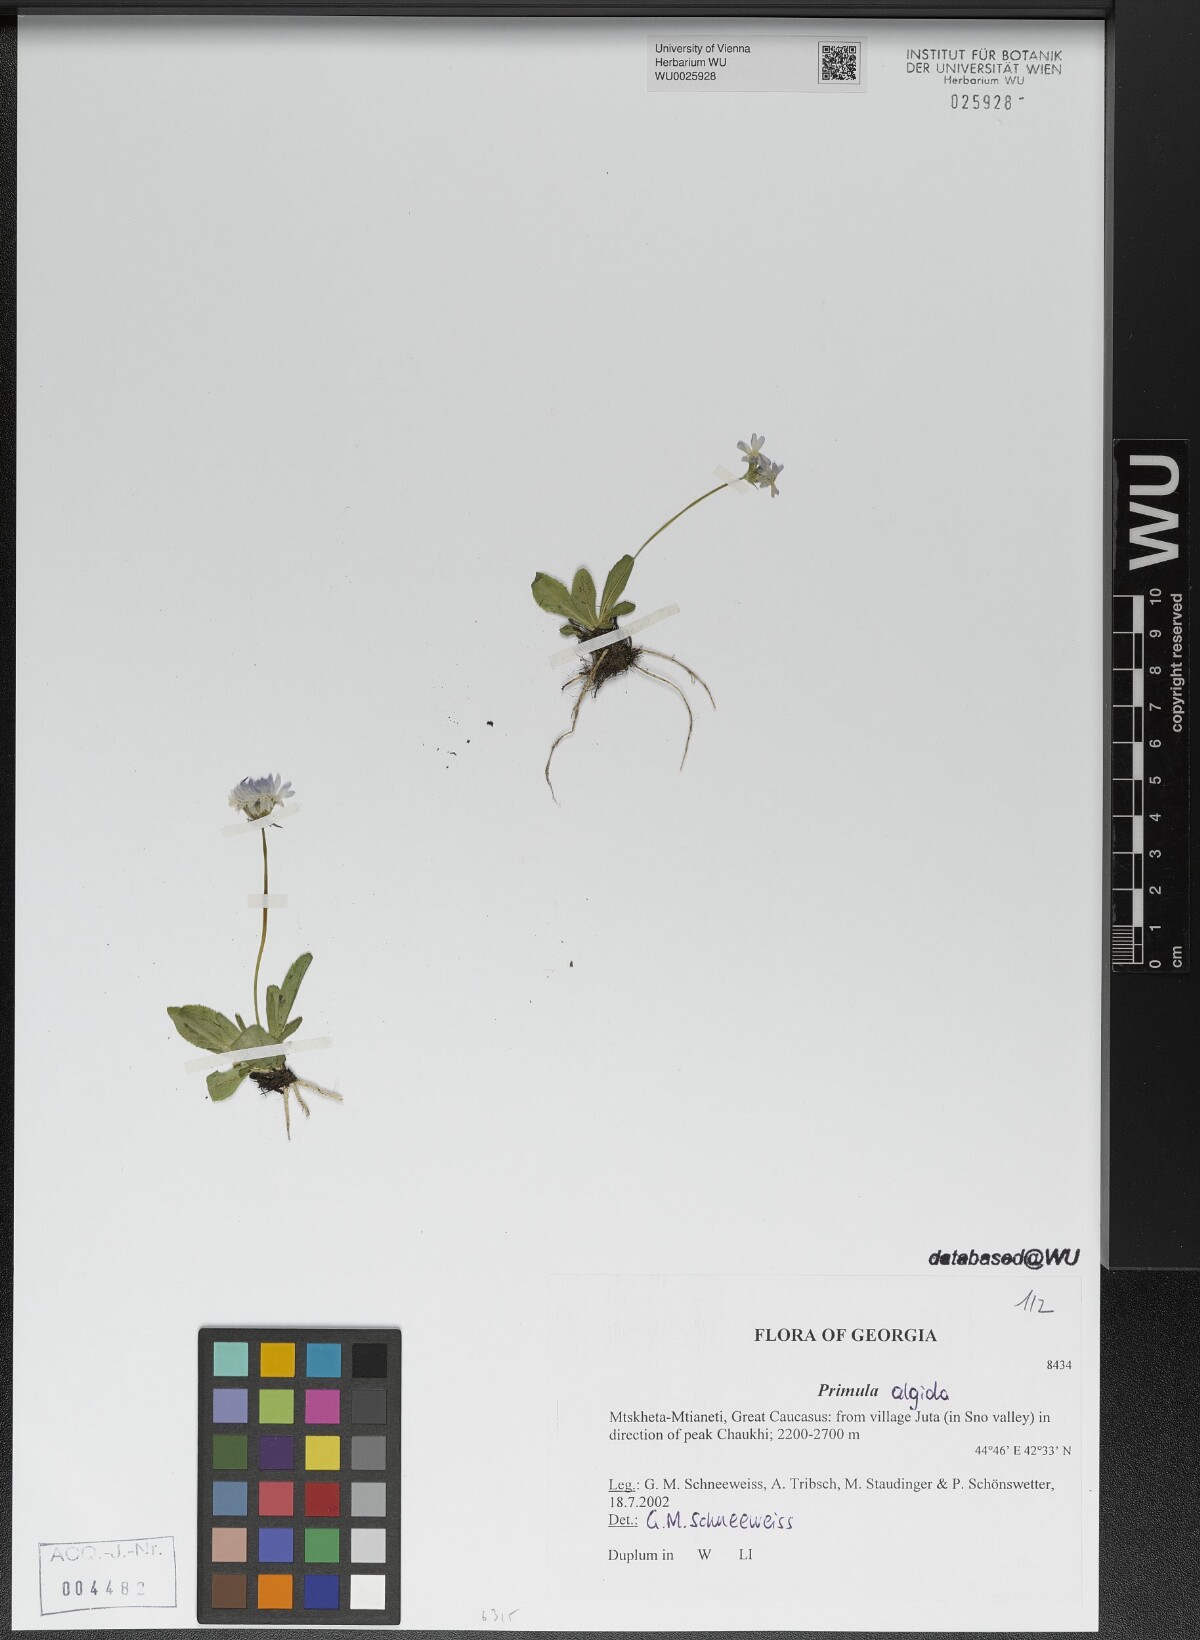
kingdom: Plantae
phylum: Tracheophyta
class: Magnoliopsida
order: Ericales
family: Primulaceae
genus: Primula
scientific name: Primula algida
